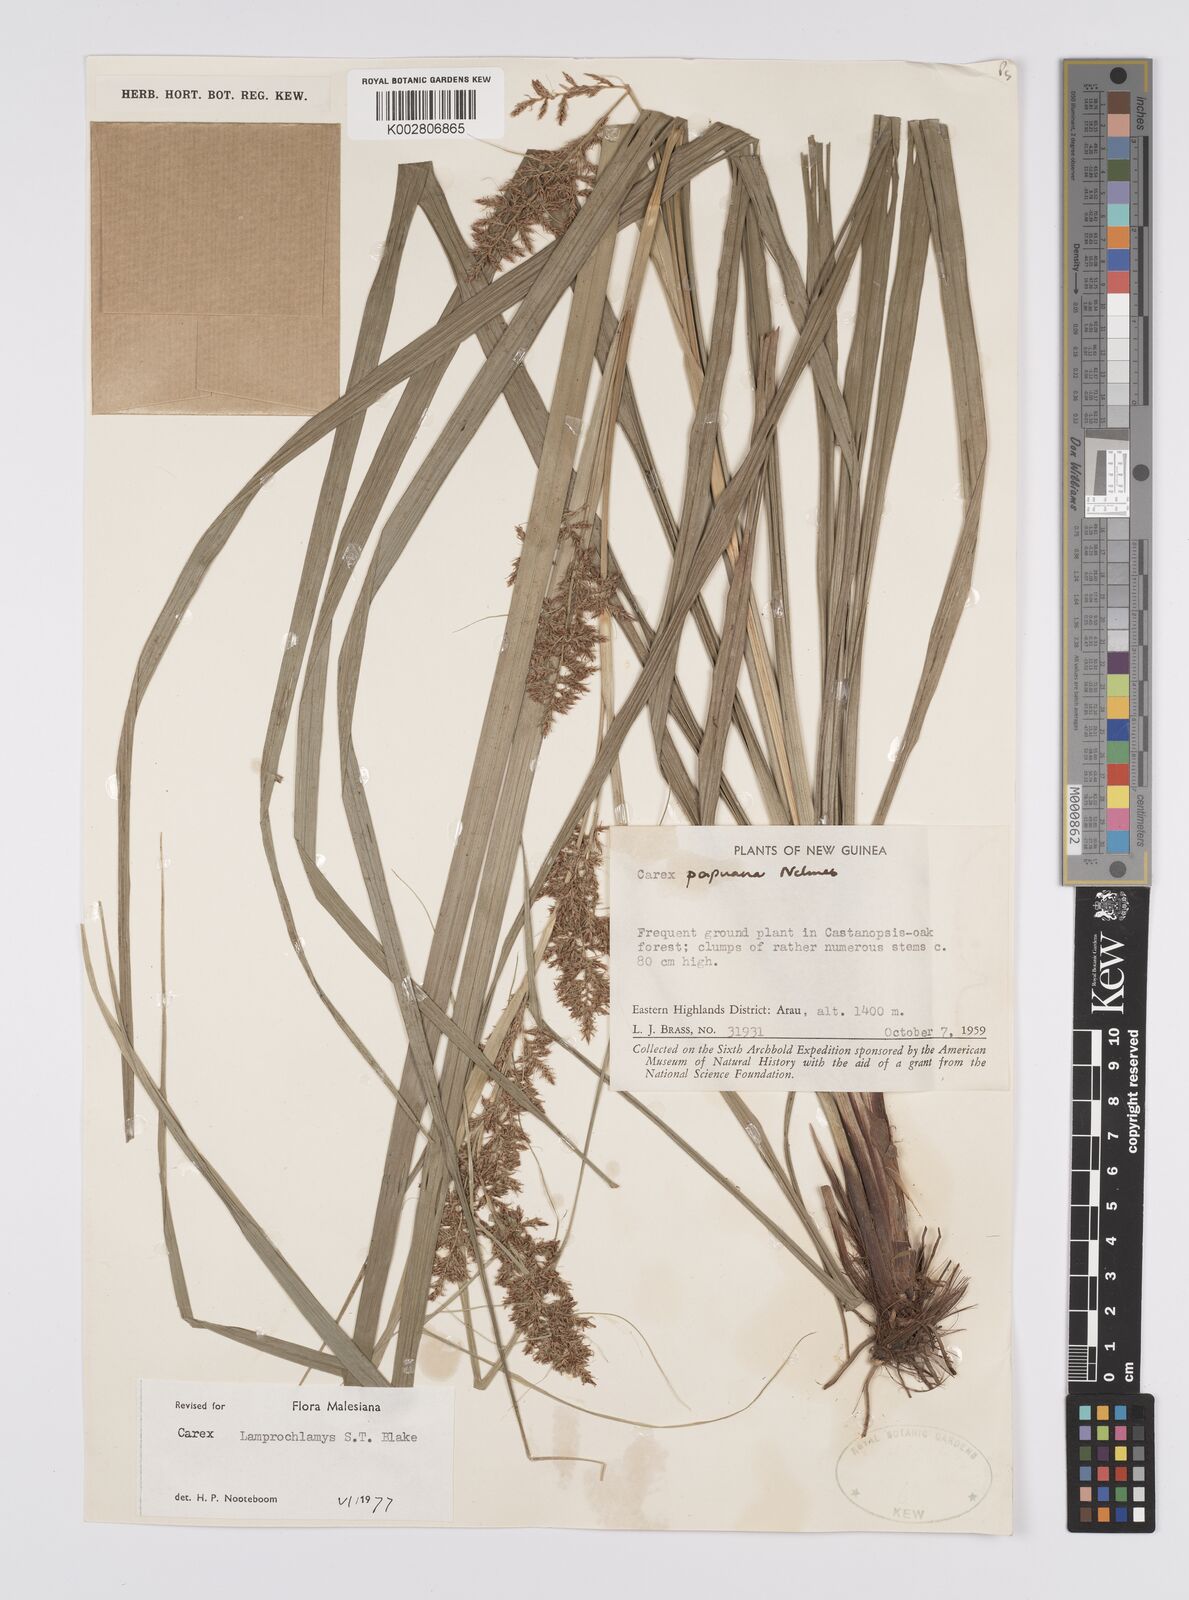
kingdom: Plantae
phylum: Tracheophyta
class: Liliopsida
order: Poales
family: Cyperaceae
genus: Carex
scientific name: Carex lamprochlamys
